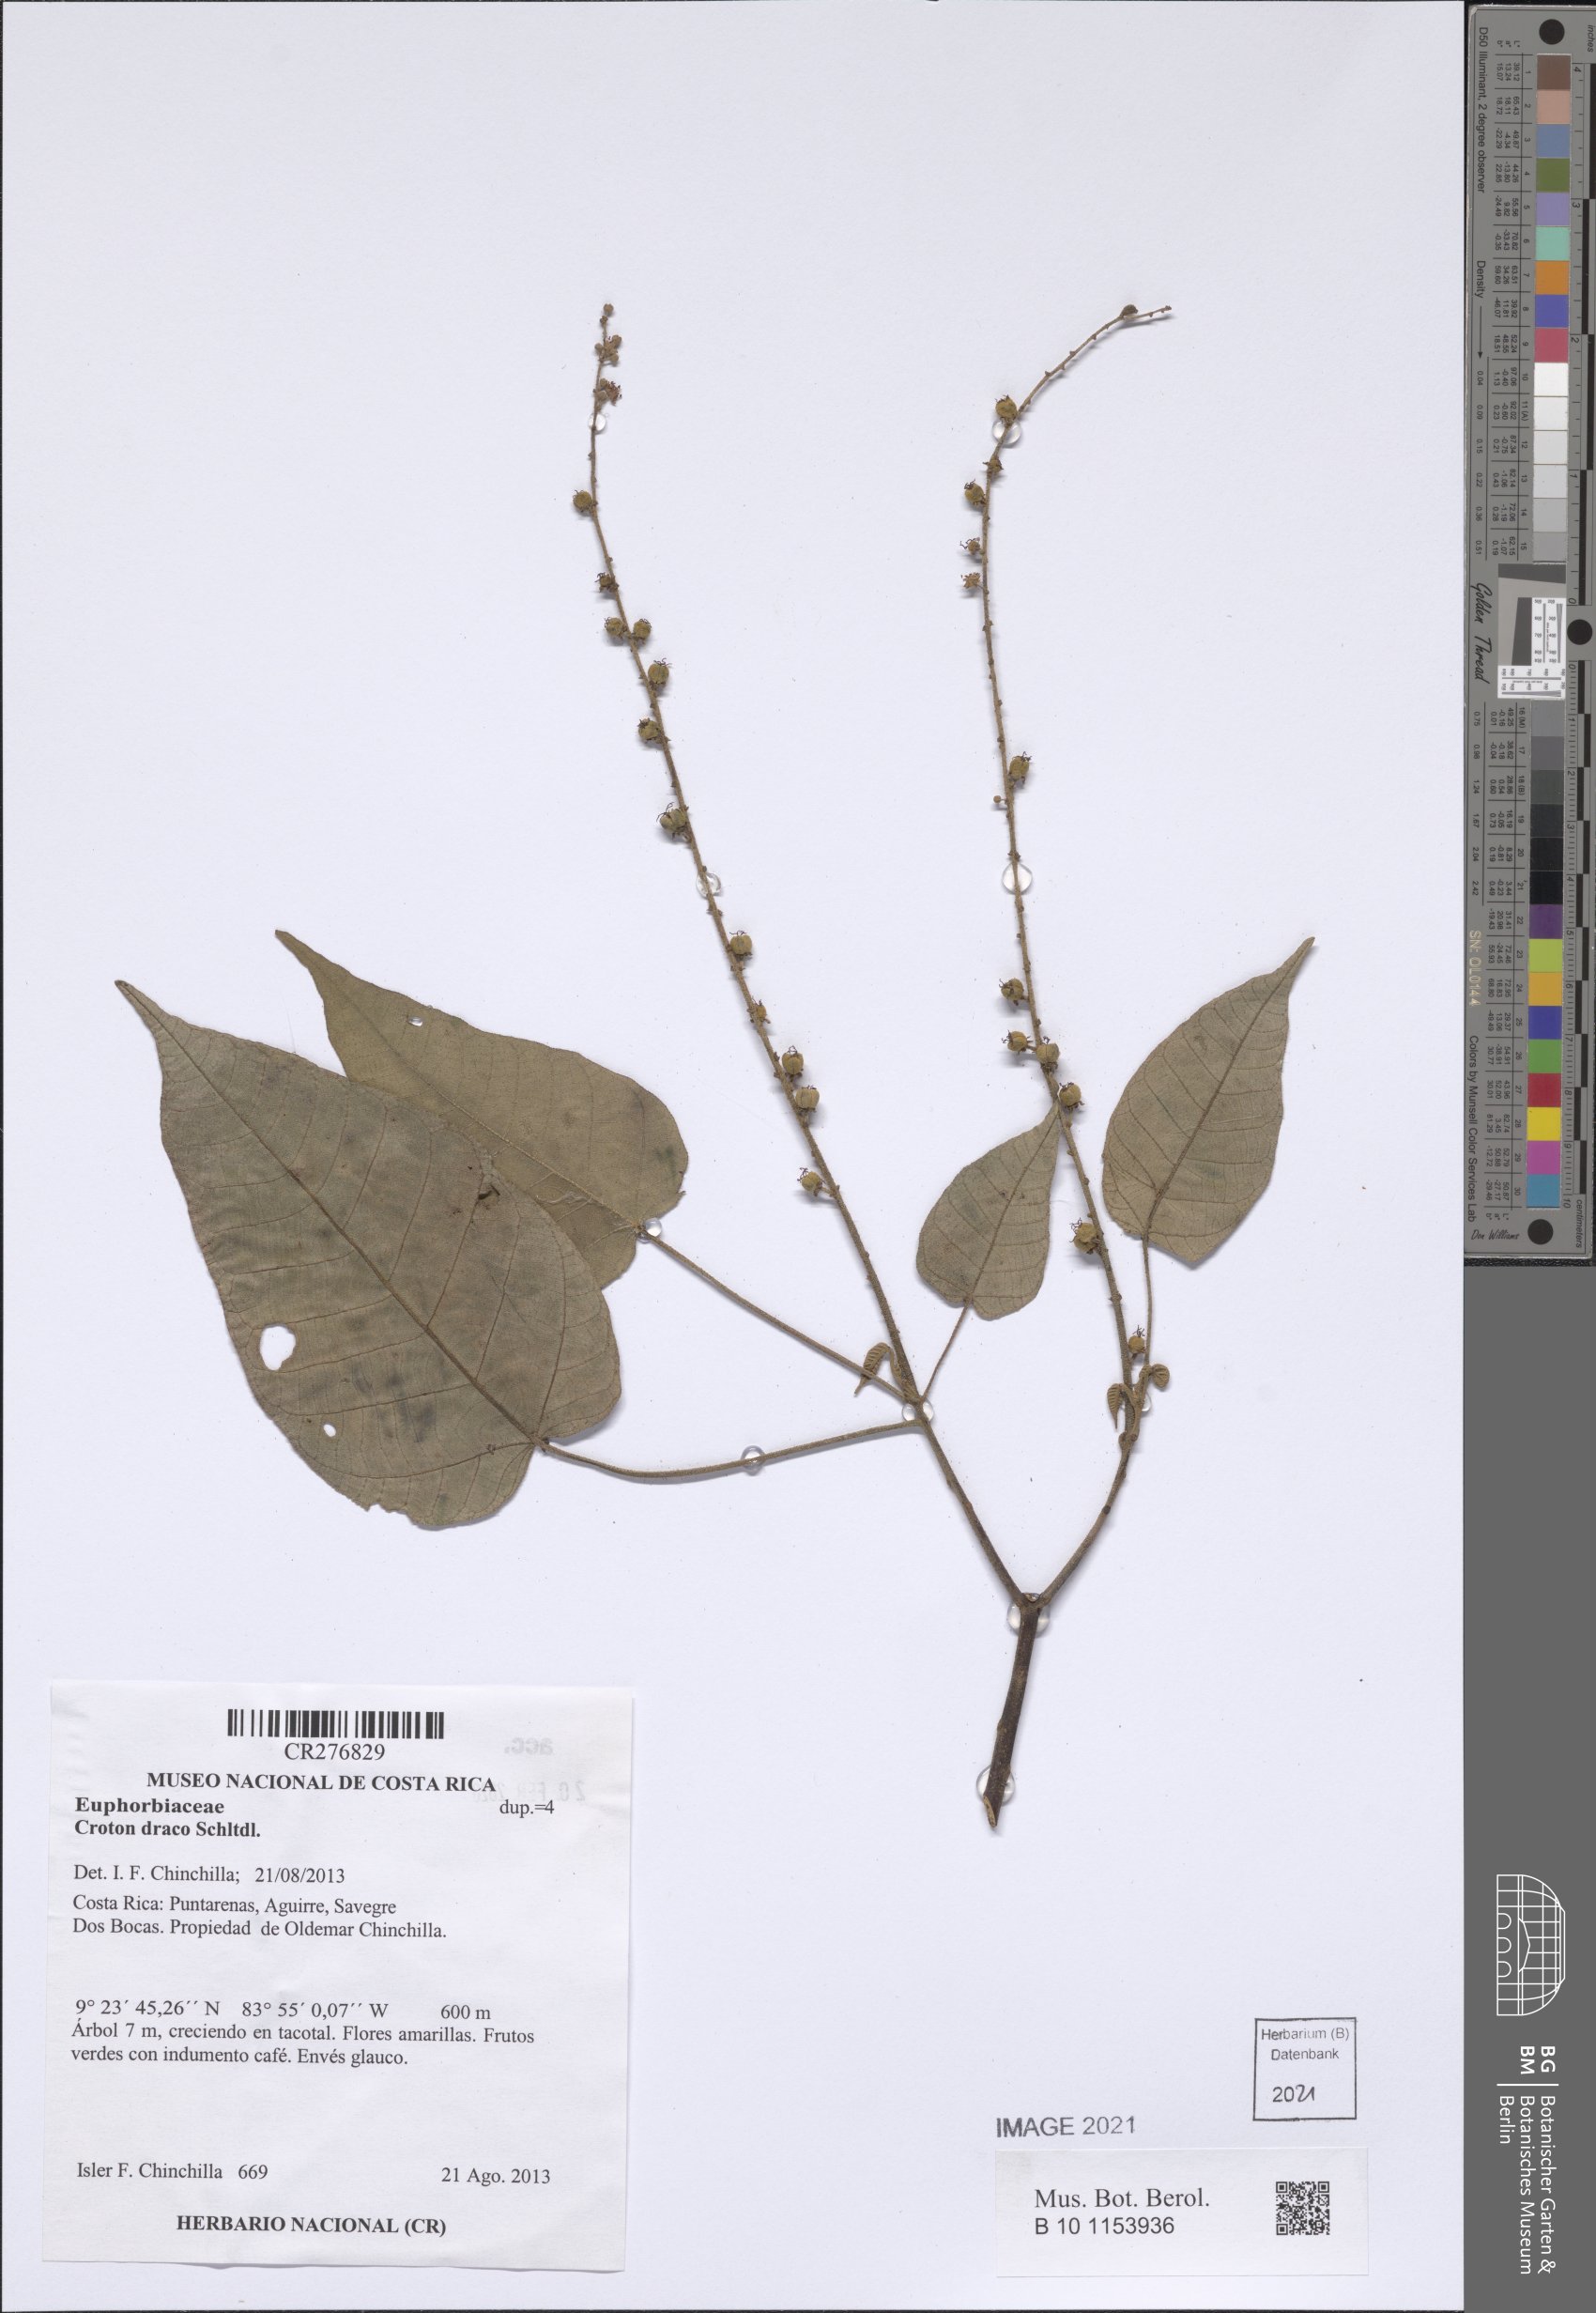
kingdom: Plantae
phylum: Tracheophyta
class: Magnoliopsida
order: Malpighiales
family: Euphorbiaceae
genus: Croton
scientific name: Croton draco
